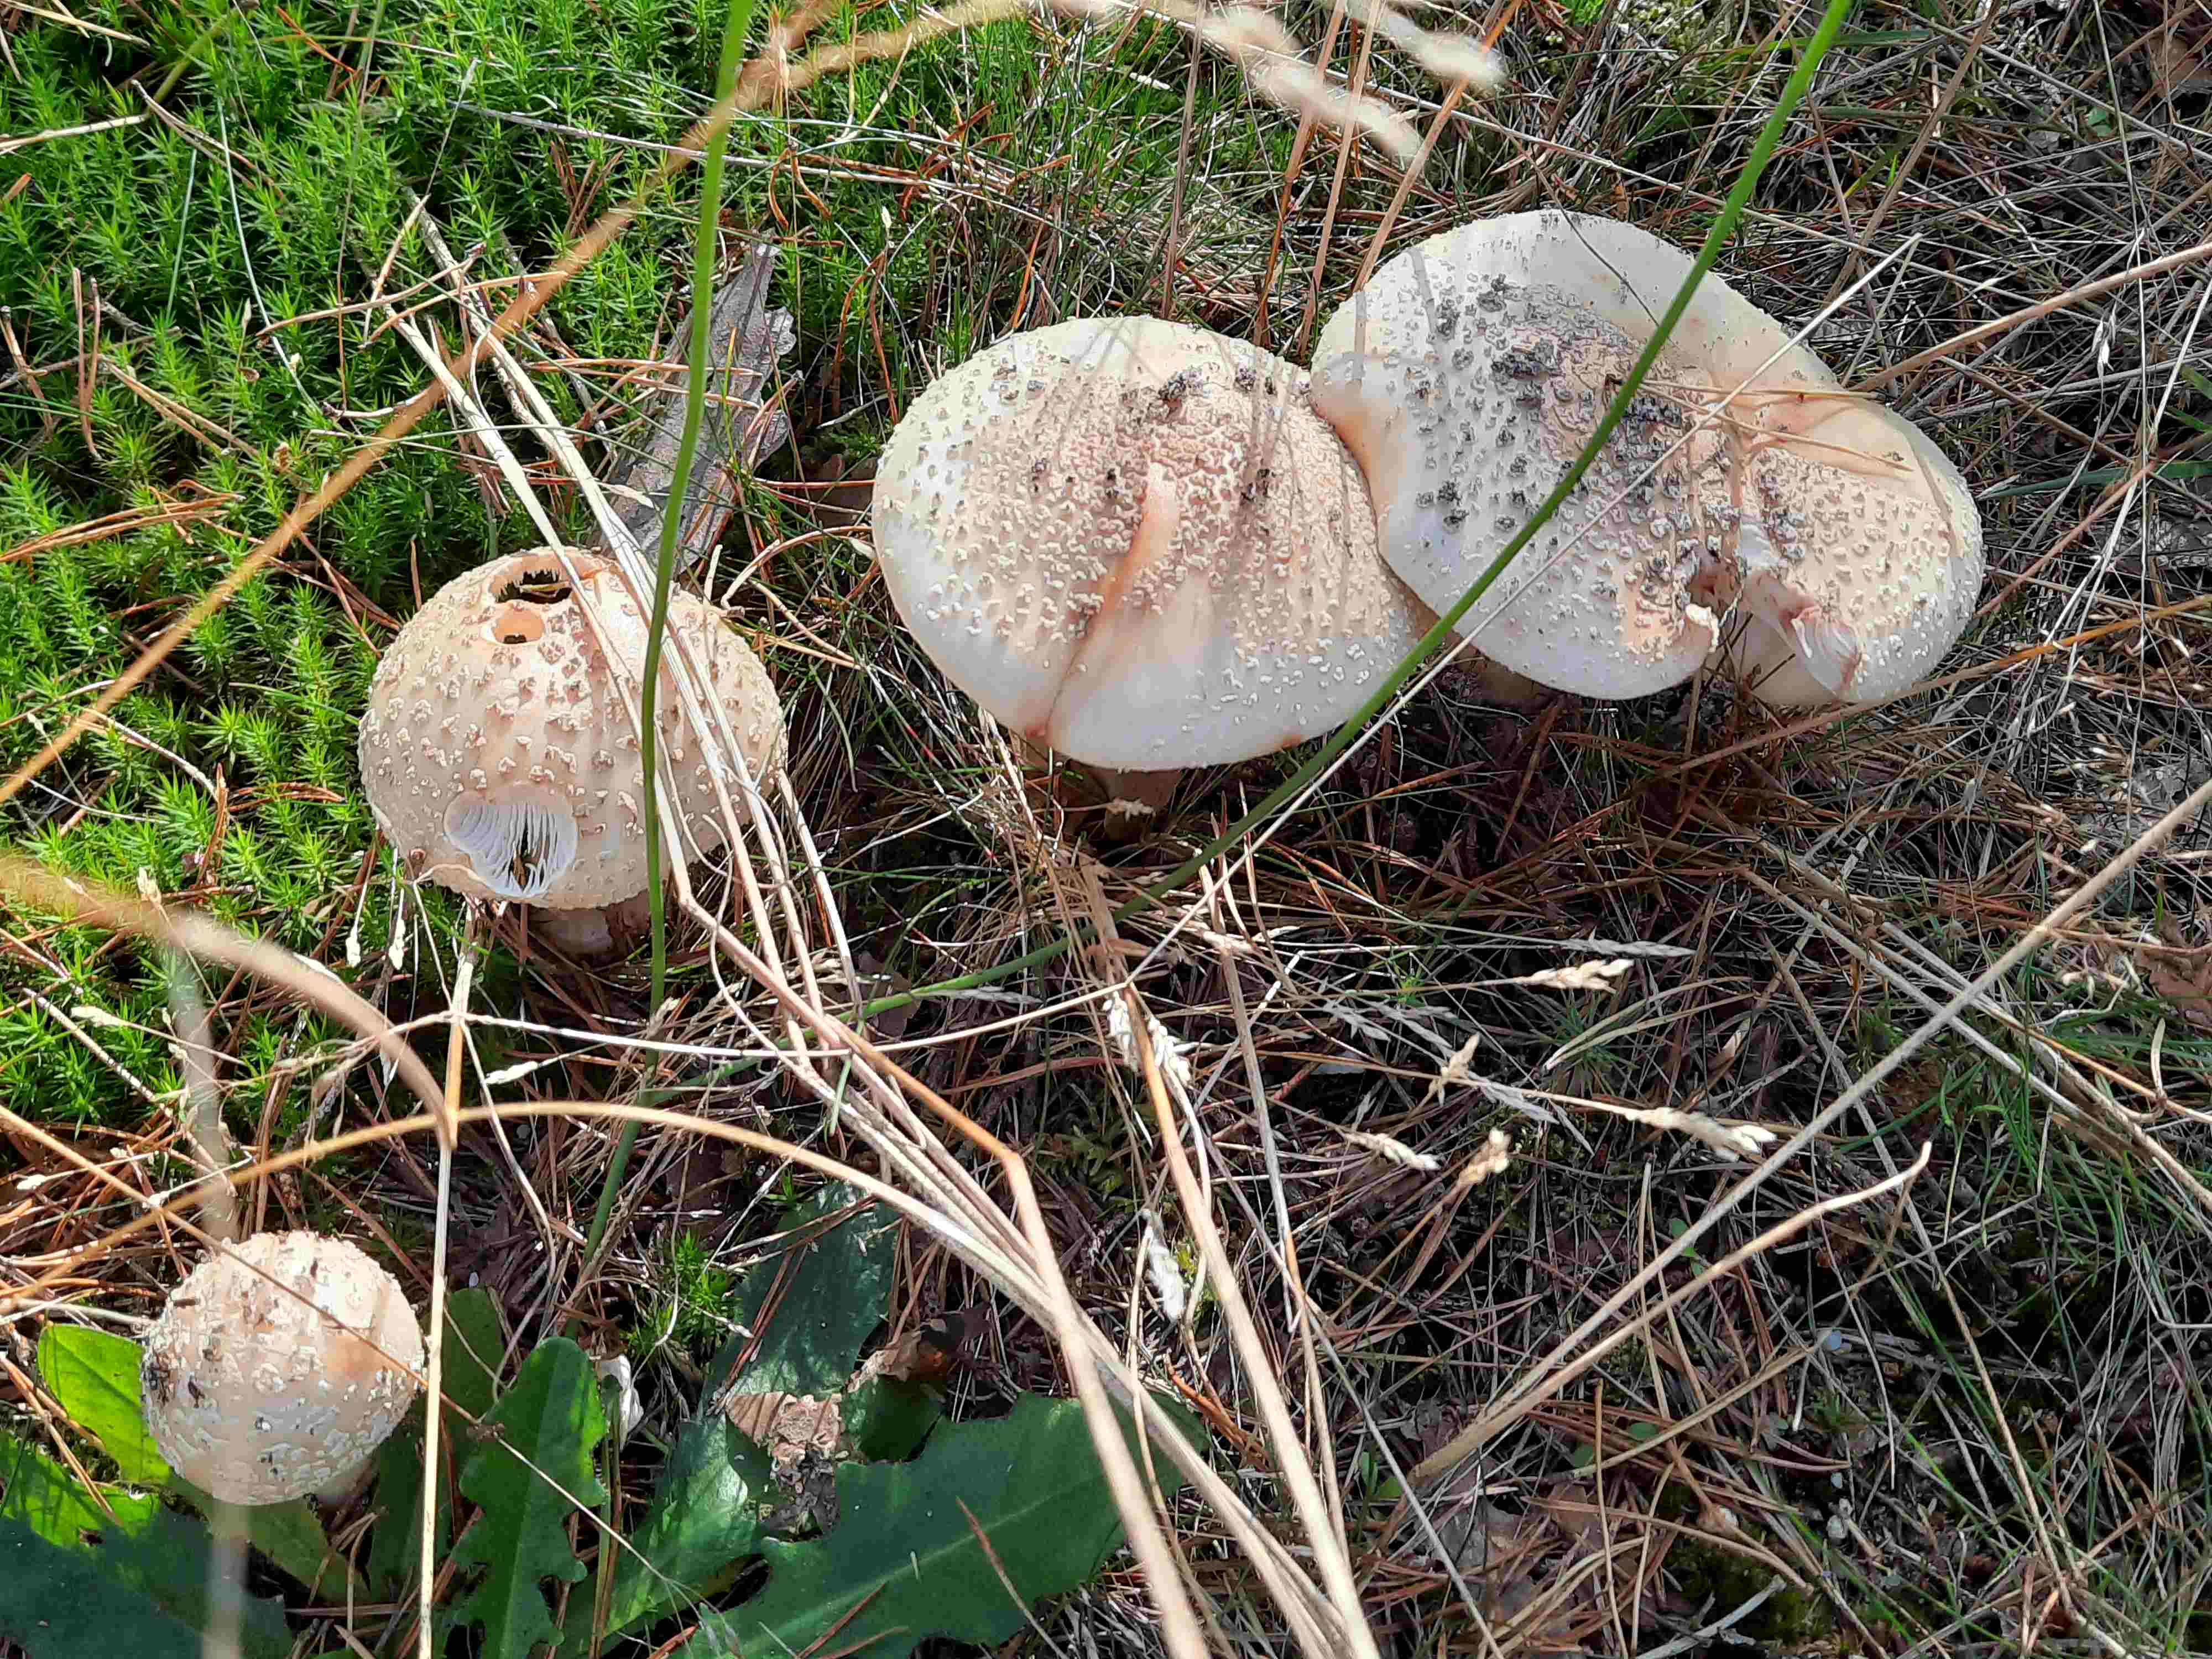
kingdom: Fungi
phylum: Basidiomycota
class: Agaricomycetes
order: Agaricales
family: Amanitaceae
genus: Amanita
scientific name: Amanita rubescens
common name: rødmende fluesvamp
